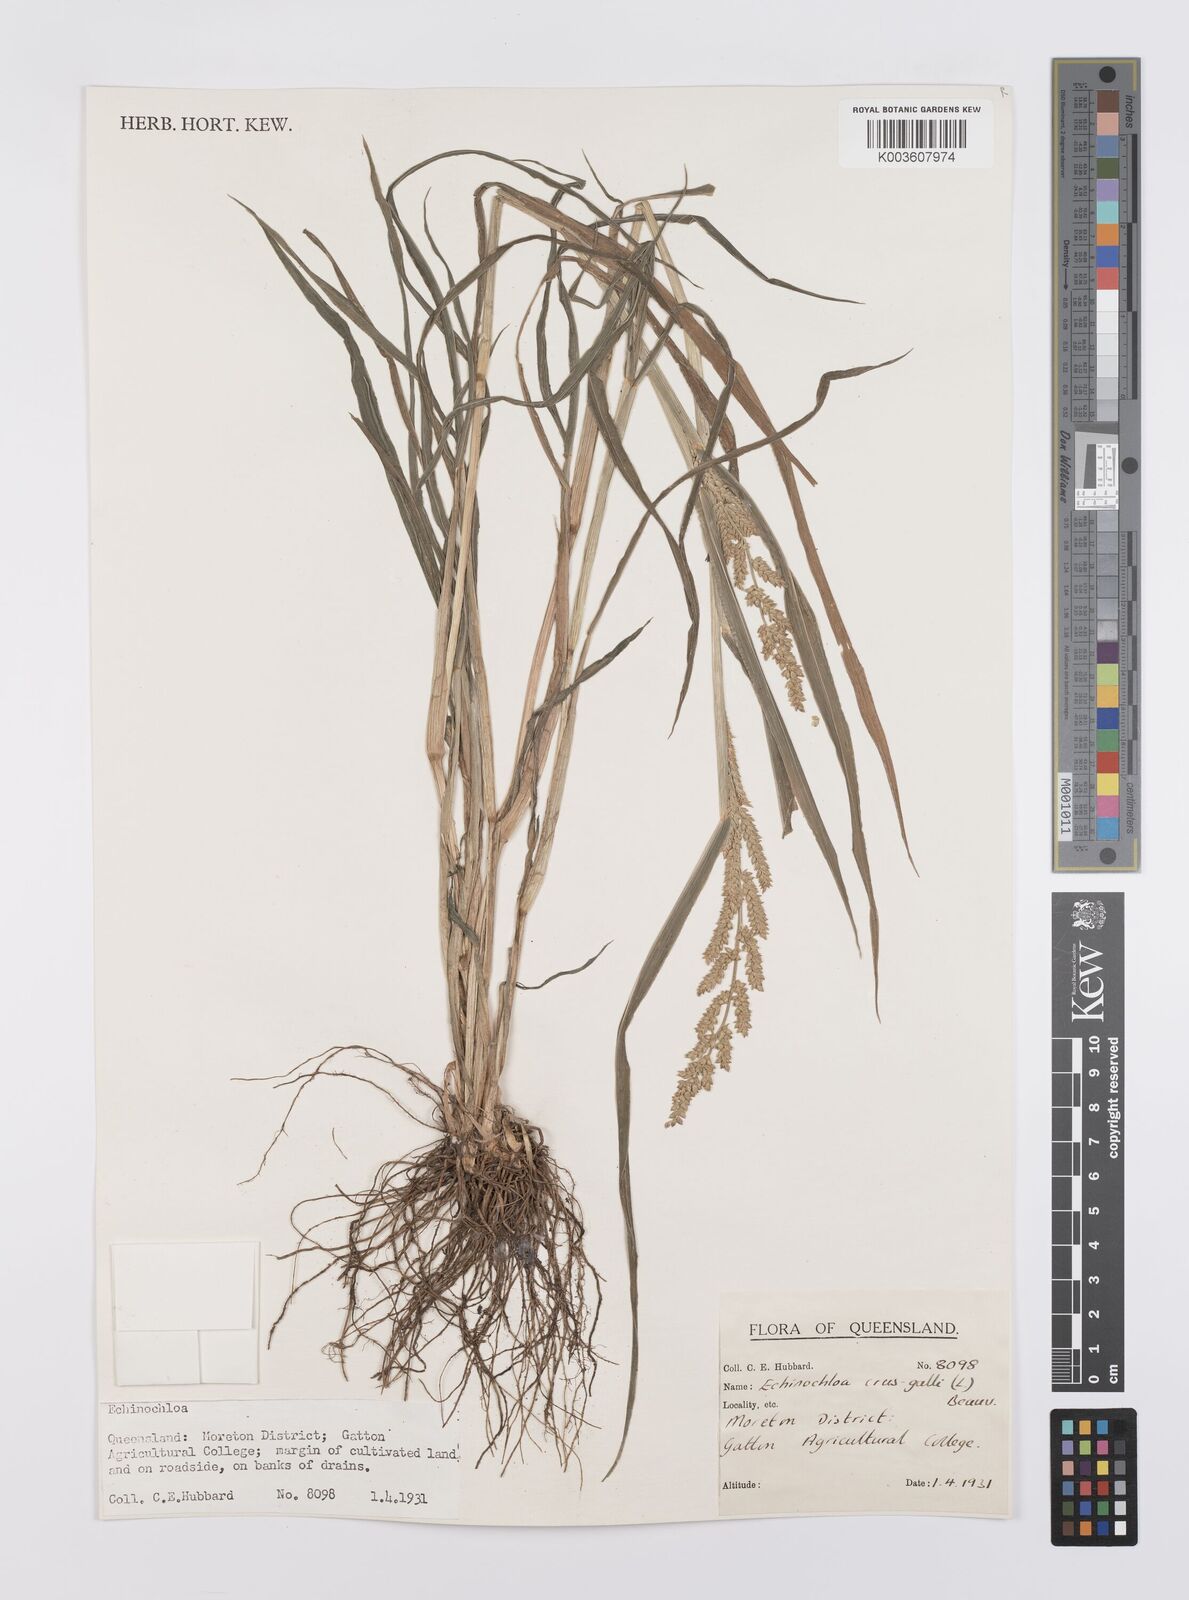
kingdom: Plantae
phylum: Tracheophyta
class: Liliopsida
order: Poales
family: Poaceae
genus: Echinochloa
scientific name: Echinochloa crus-galli
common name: Cockspur
